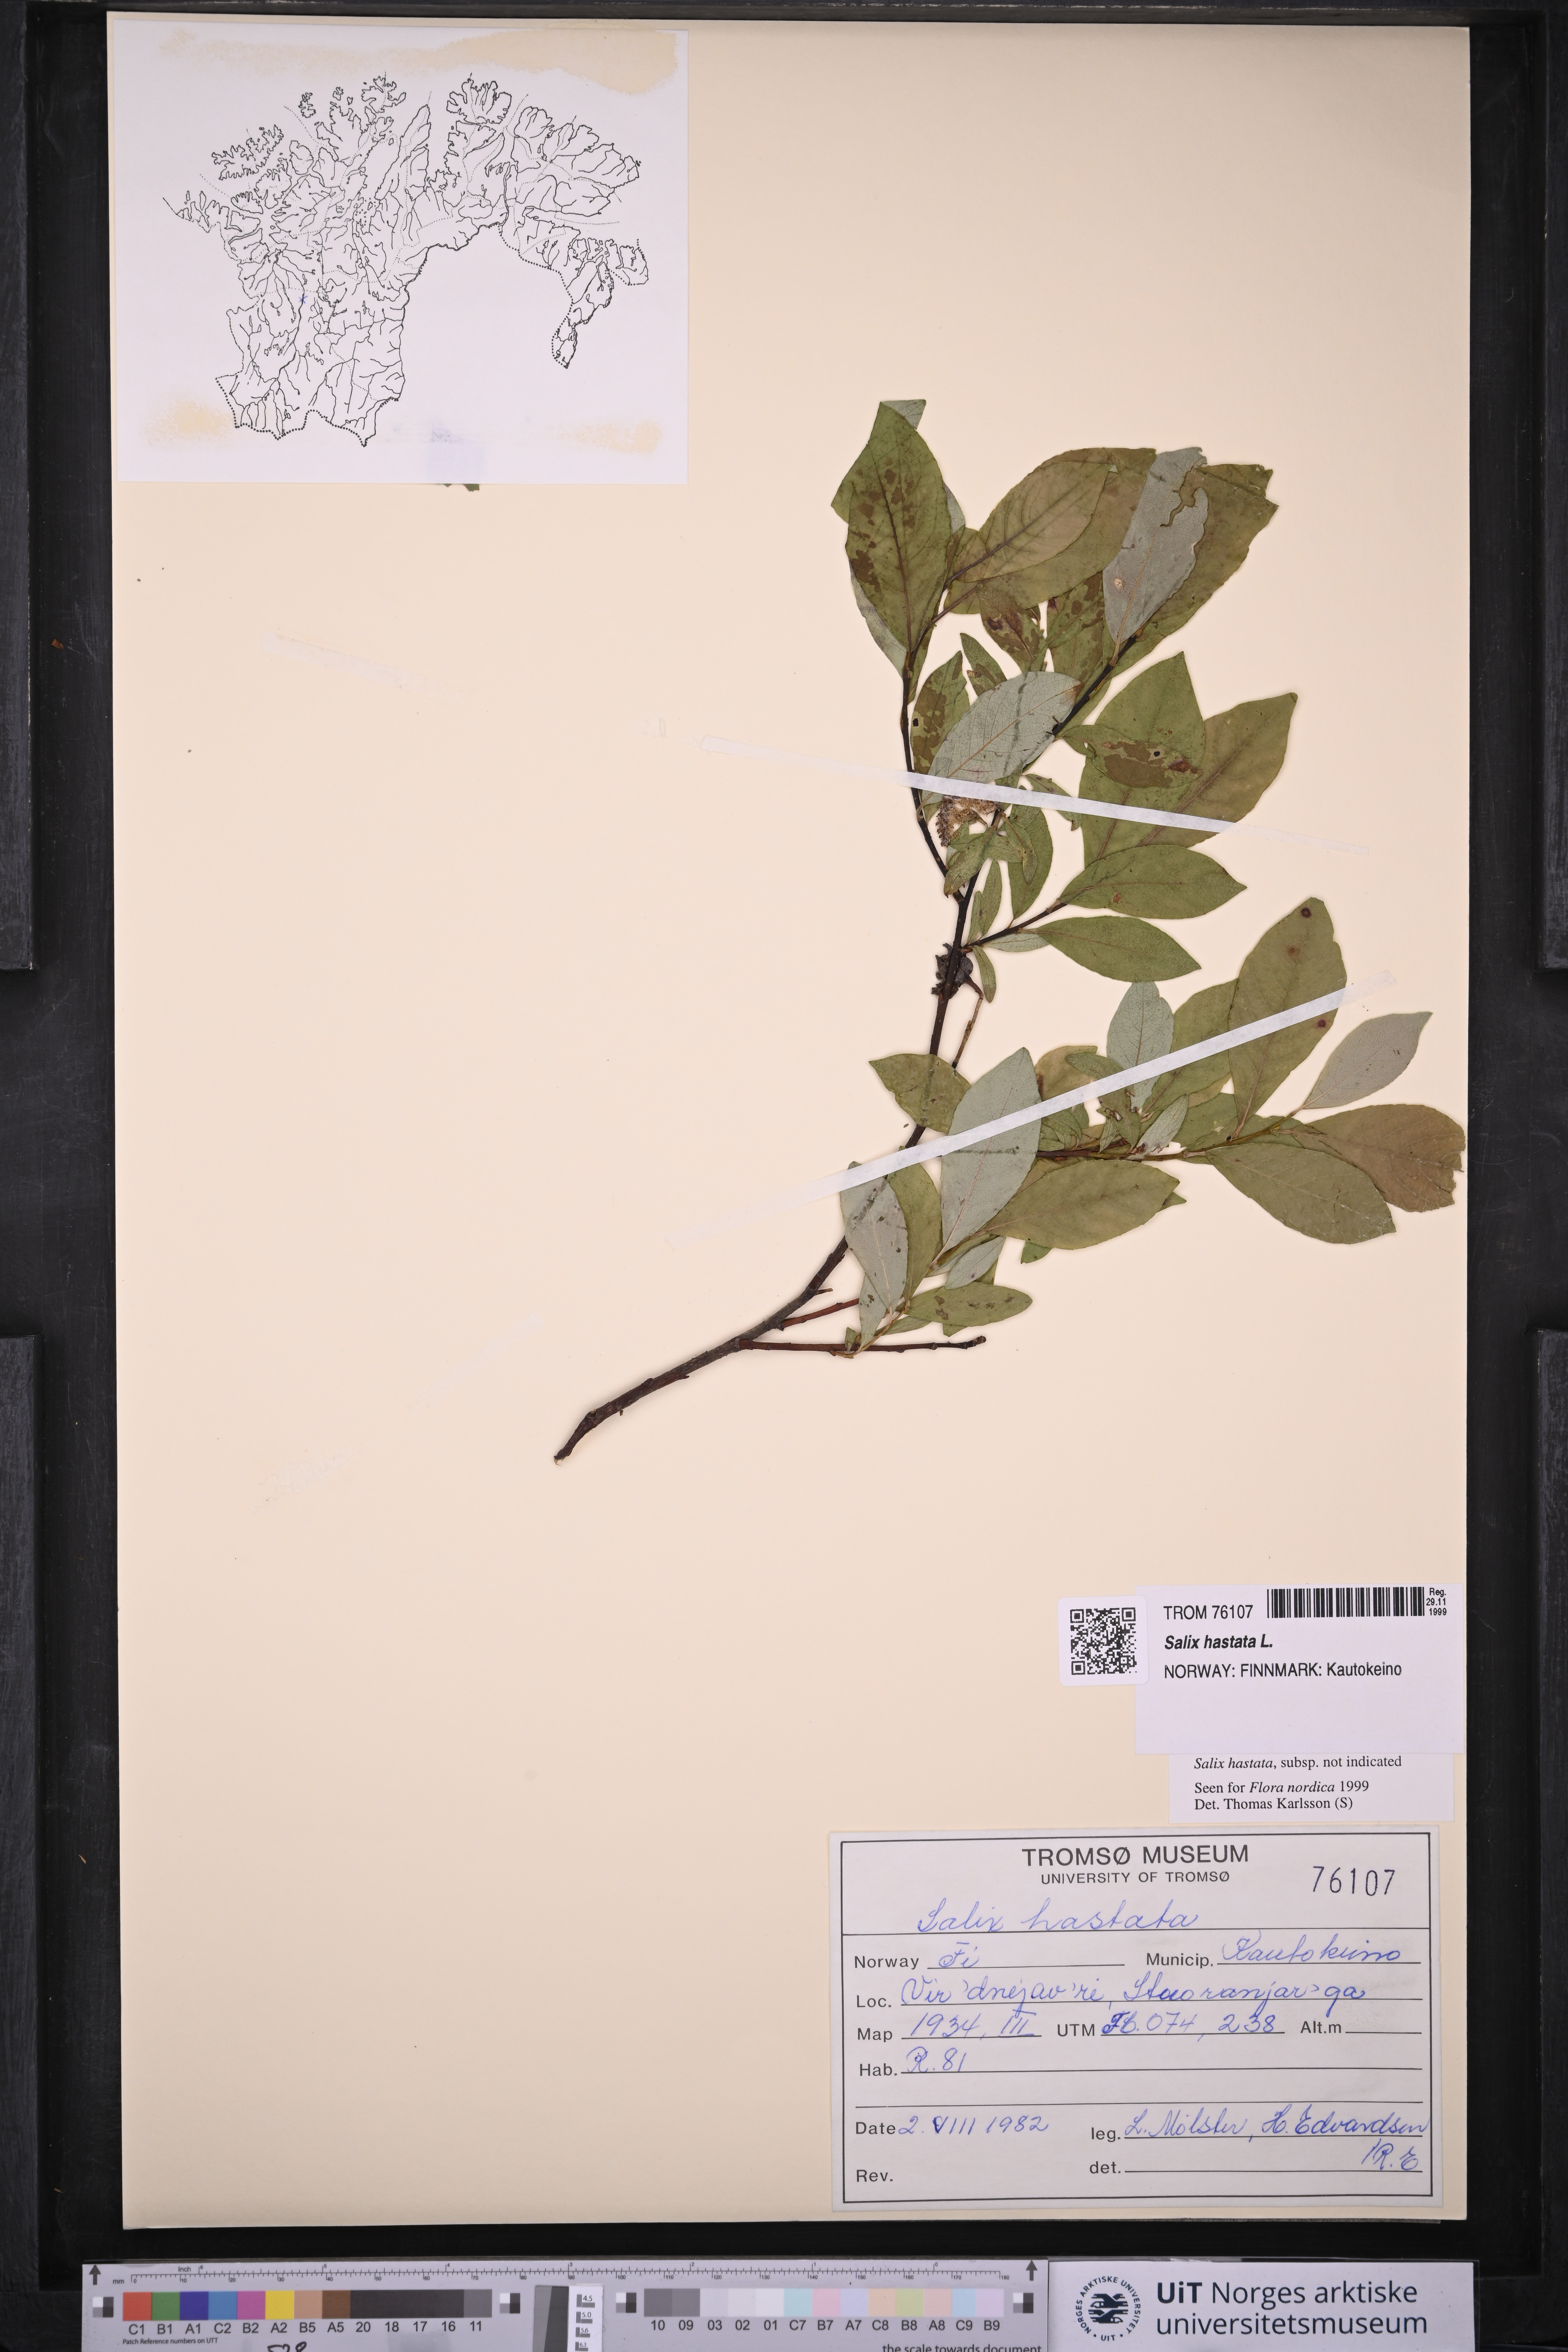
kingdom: Plantae
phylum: Tracheophyta
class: Magnoliopsida
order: Malpighiales
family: Salicaceae
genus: Salix
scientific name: Salix hastata
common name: Halberd willow
